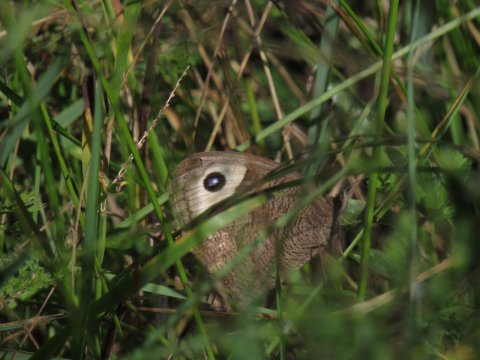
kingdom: Animalia
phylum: Arthropoda
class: Insecta
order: Lepidoptera
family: Nymphalidae
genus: Cercyonis
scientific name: Cercyonis pegala
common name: Common Wood-Nymph
